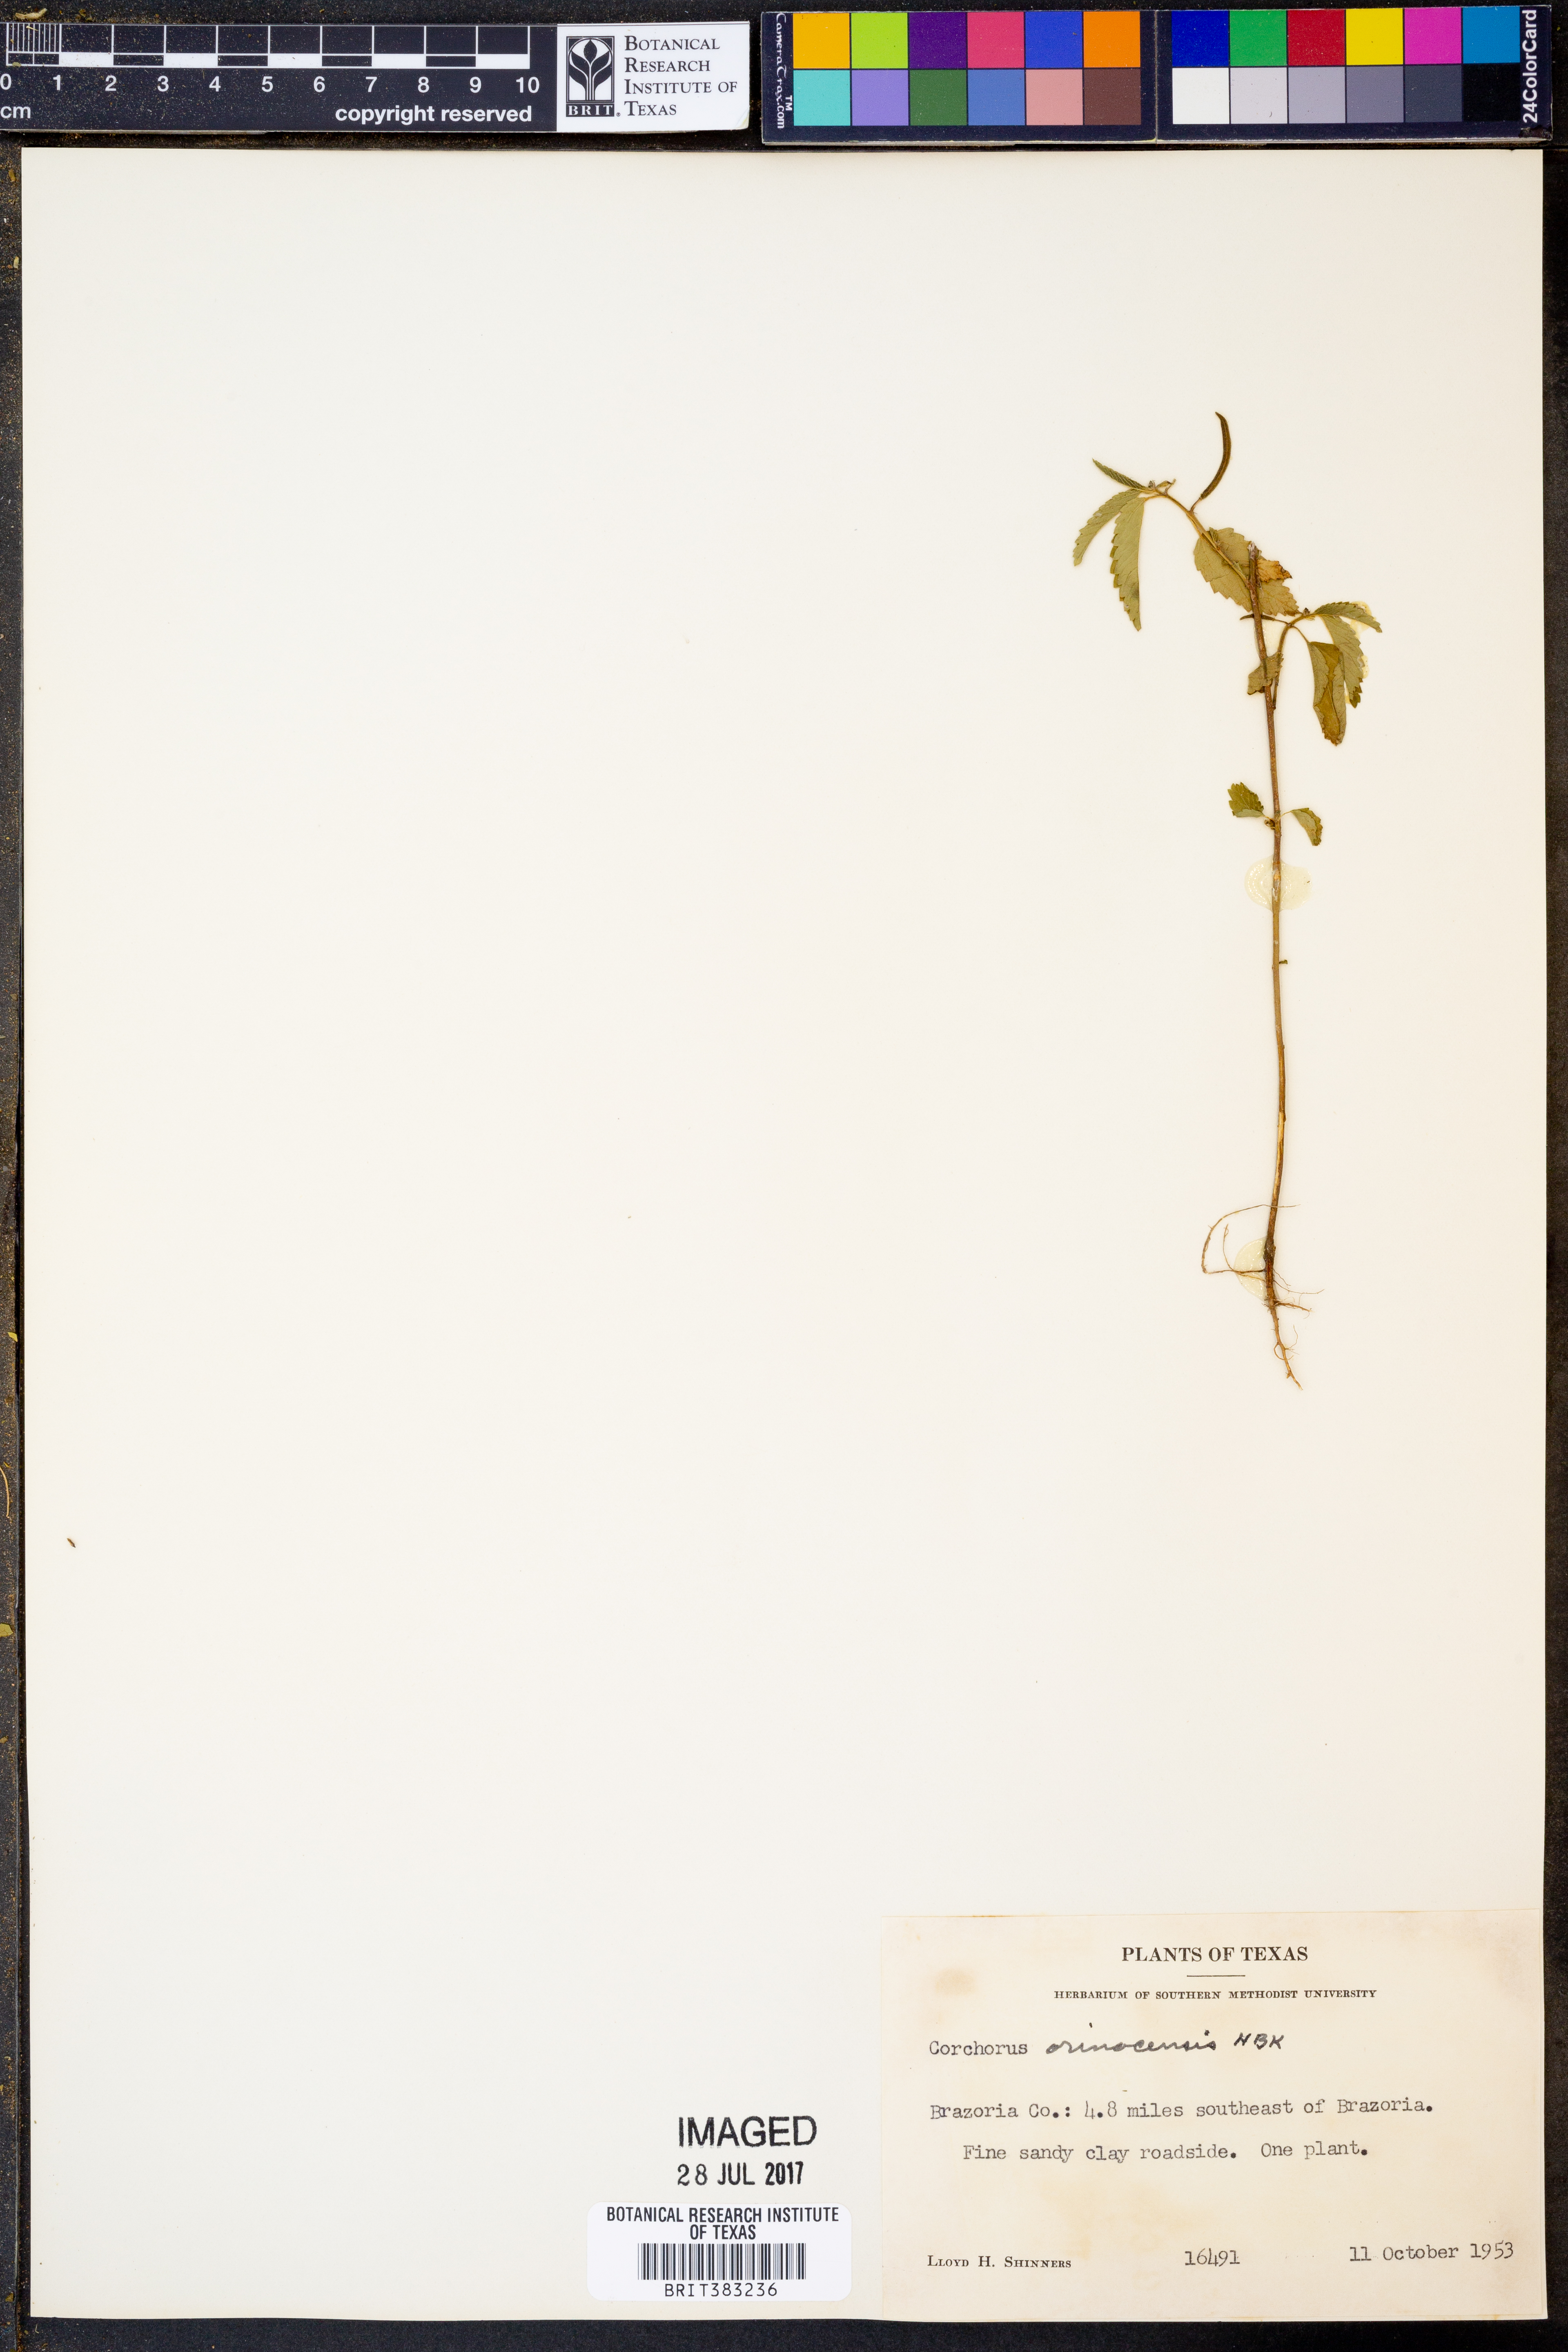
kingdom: Plantae
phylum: Tracheophyta
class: Magnoliopsida
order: Malvales
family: Malvaceae
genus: Corchorus
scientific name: Corchorus orinocensis
